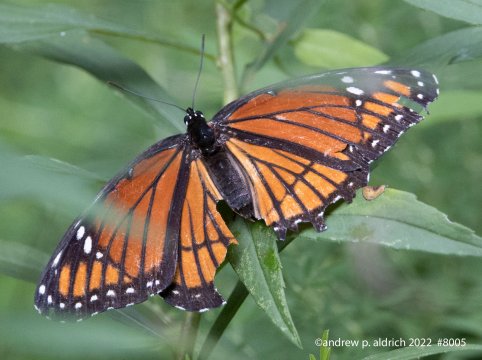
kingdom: Animalia
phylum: Arthropoda
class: Insecta
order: Lepidoptera
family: Nymphalidae
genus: Limenitis
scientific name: Limenitis archippus
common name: Viceroy
